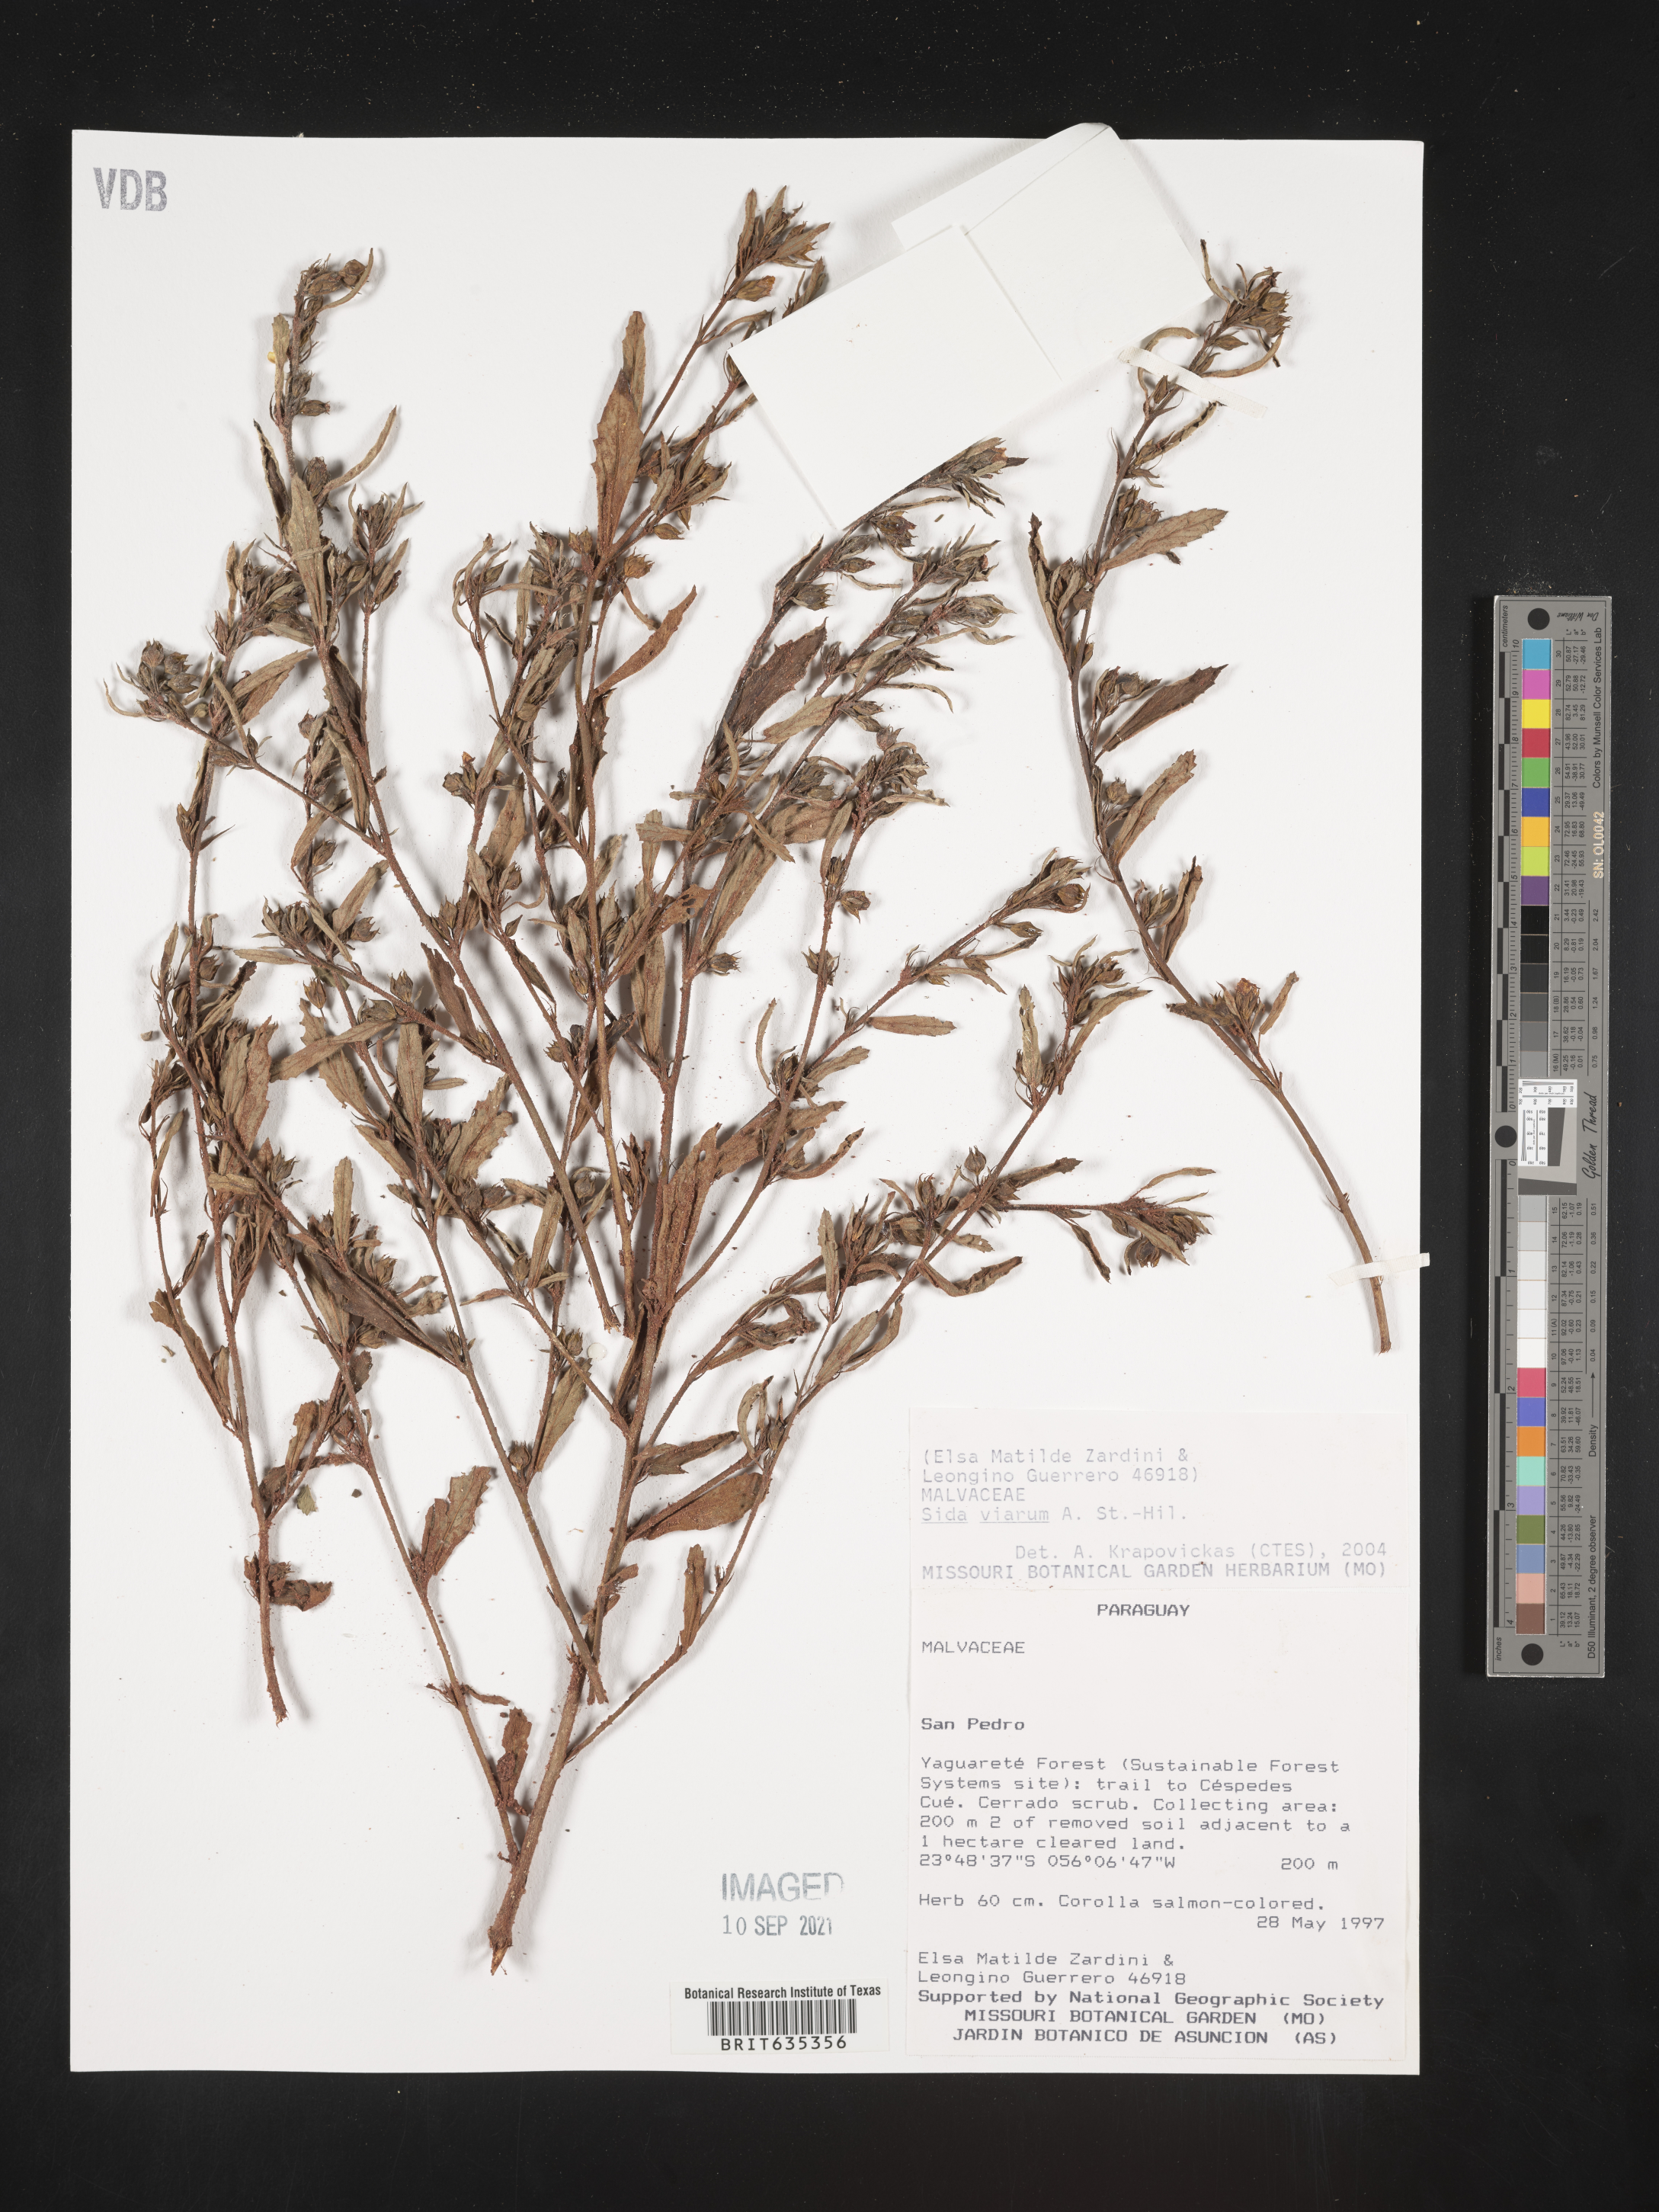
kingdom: Plantae
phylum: Tracheophyta
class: Magnoliopsida
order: Malvales
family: Malvaceae
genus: Sida
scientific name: Sida
